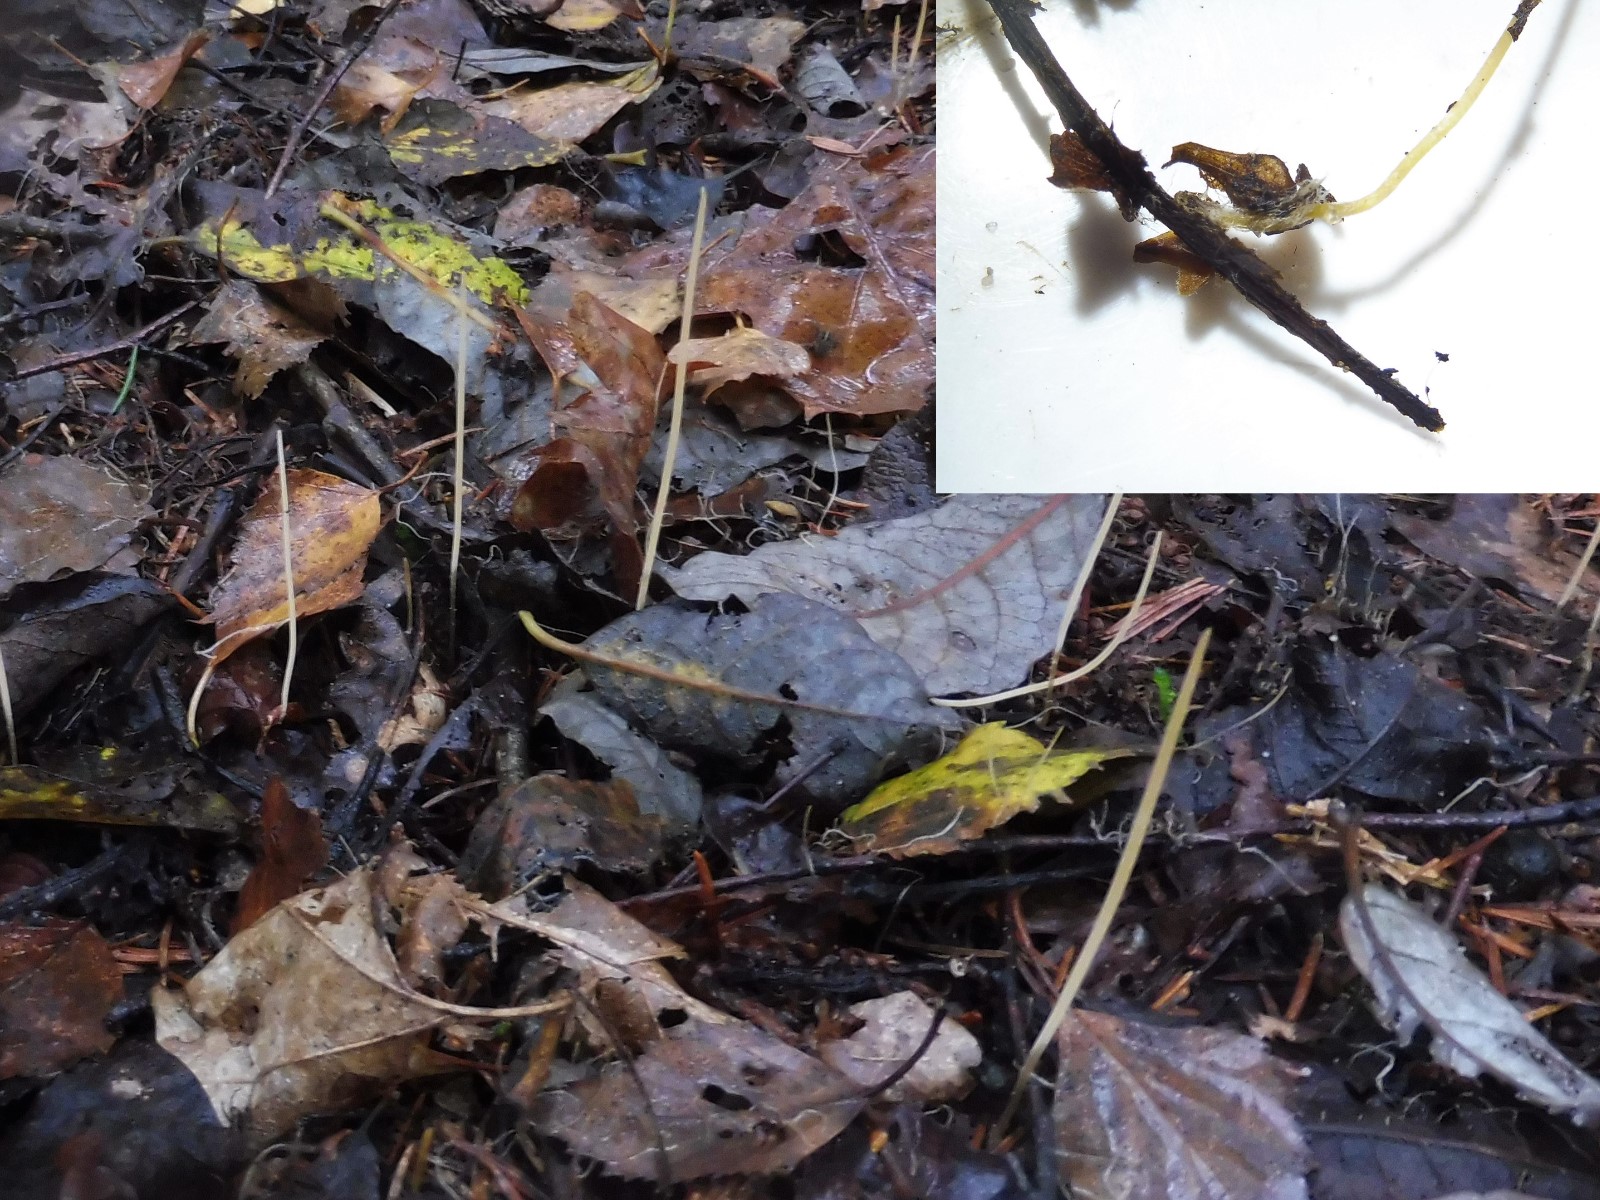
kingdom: Fungi
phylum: Basidiomycota
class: Agaricomycetes
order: Agaricales
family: Typhulaceae
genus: Typhula
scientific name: Typhula juncea
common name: trådagtig rørkølle
